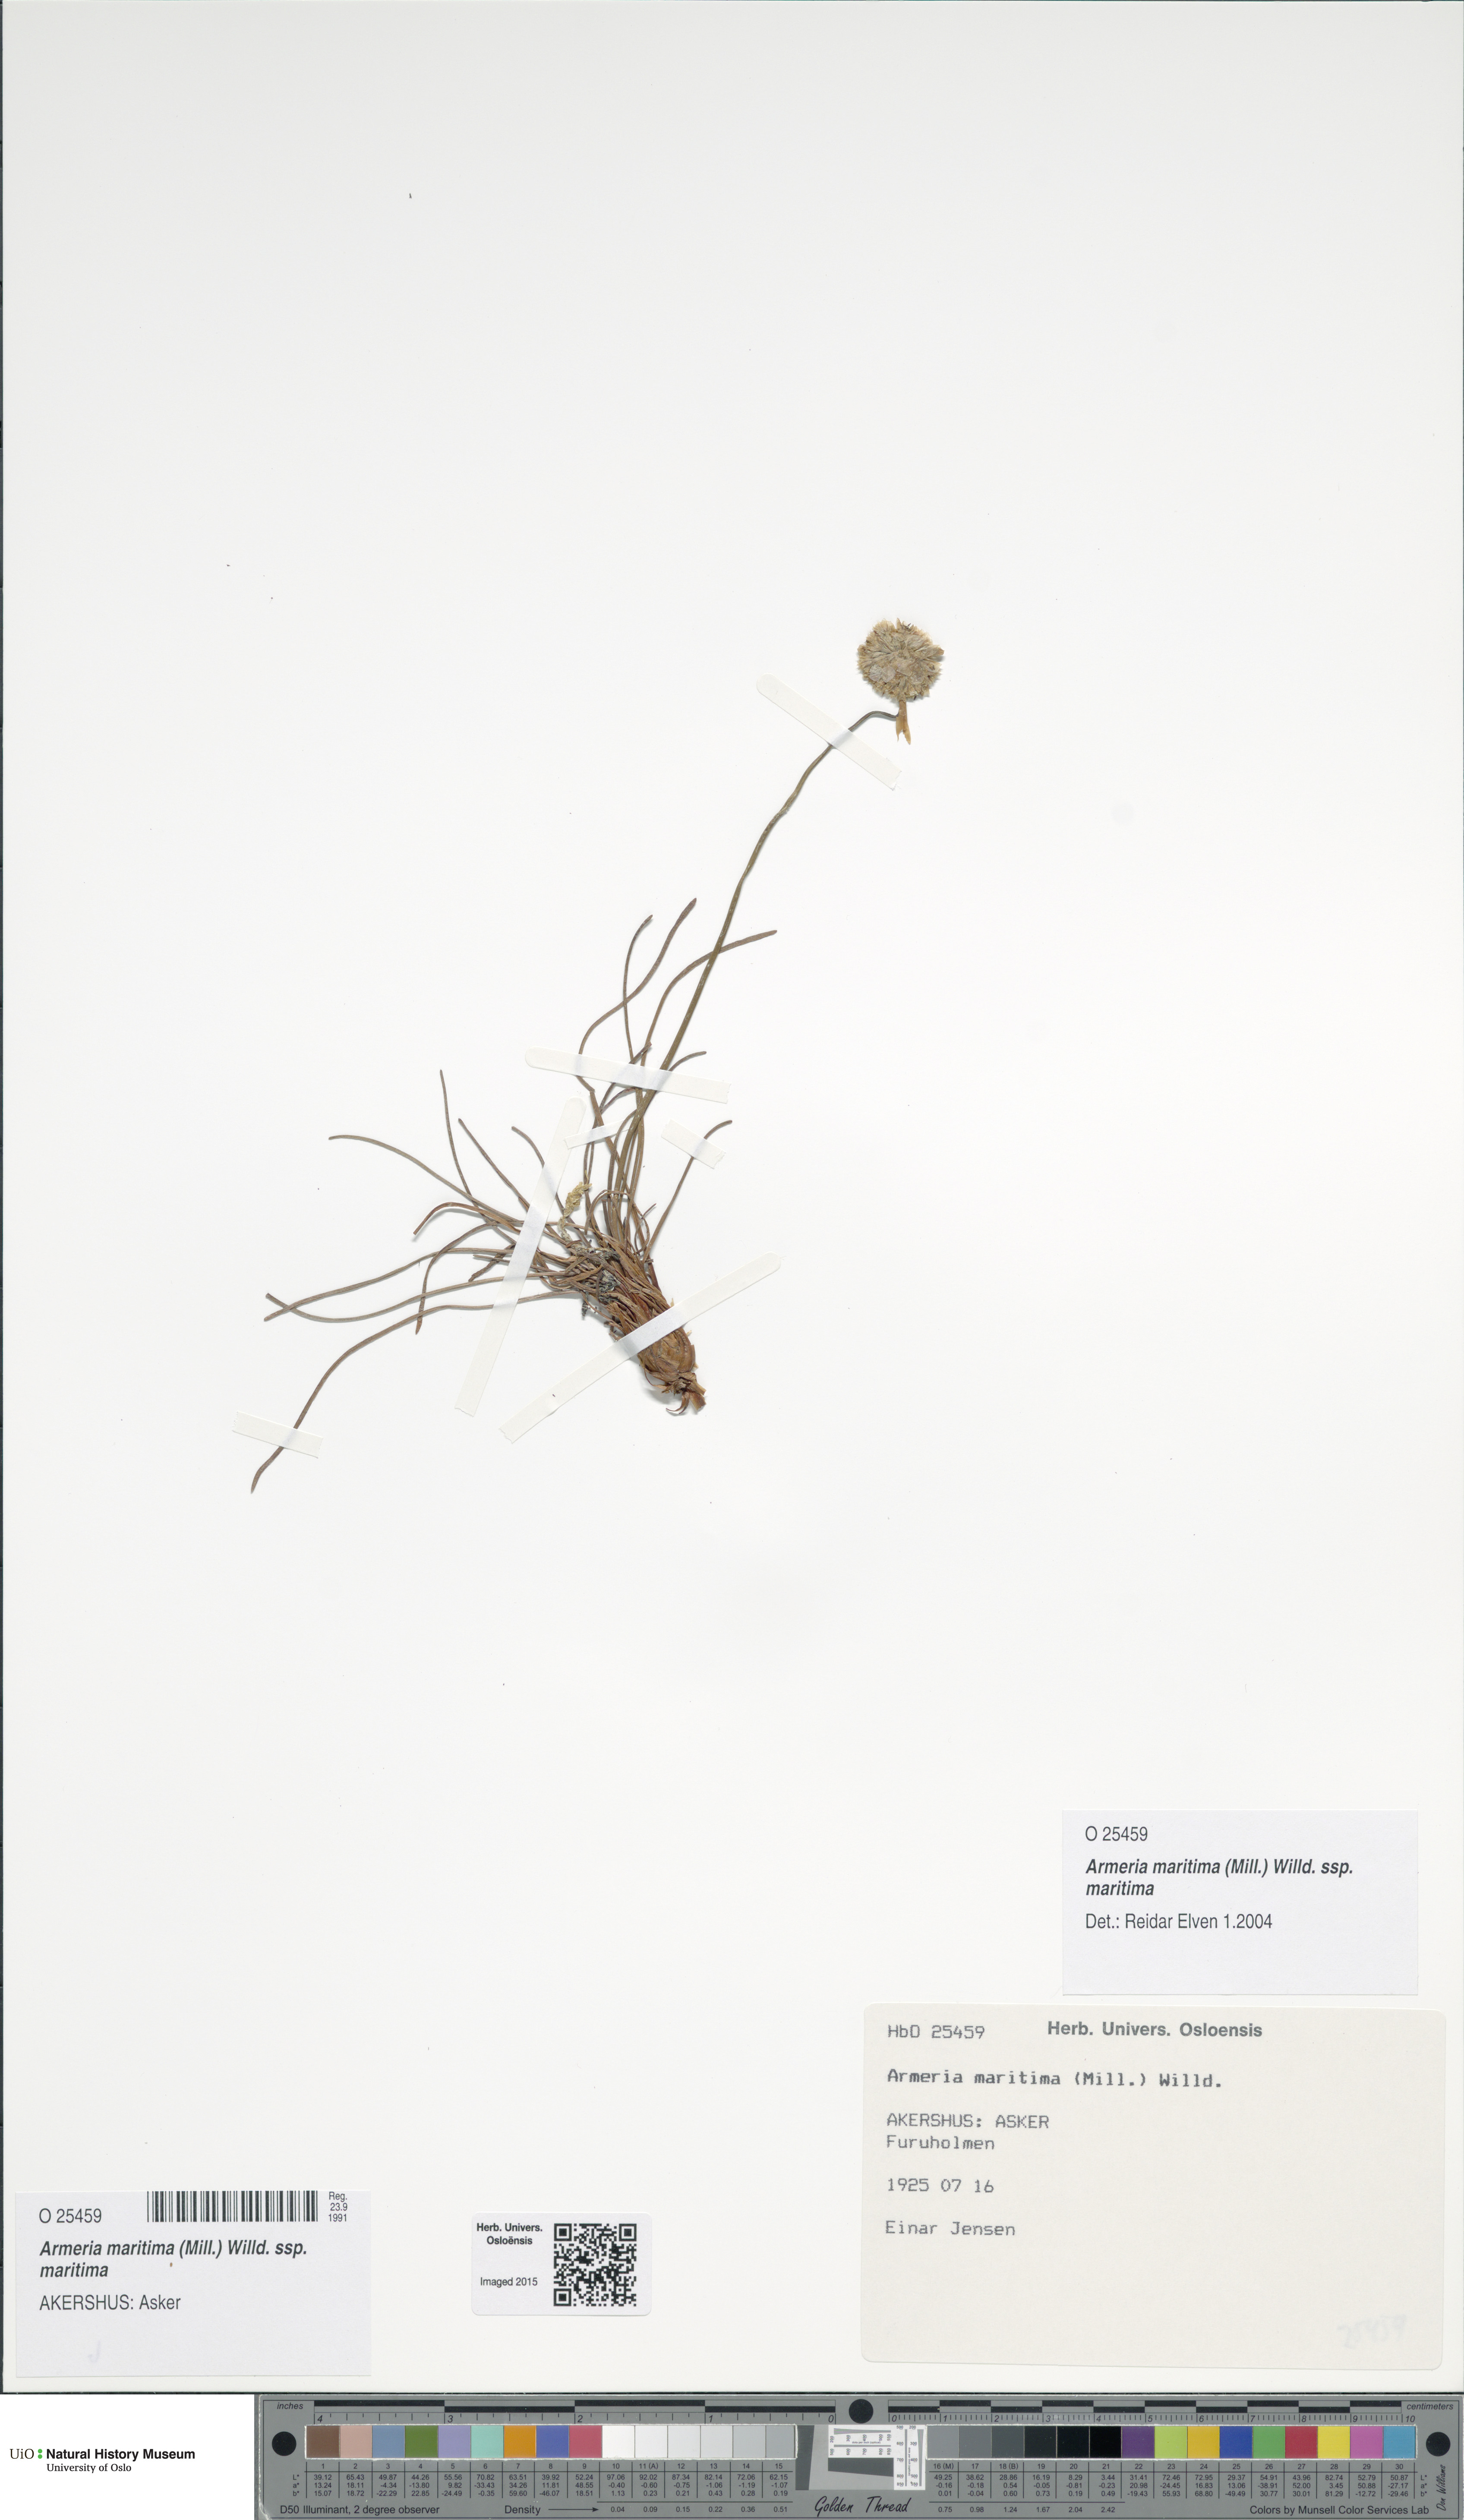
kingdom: Plantae
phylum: Tracheophyta
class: Magnoliopsida
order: Caryophyllales
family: Plumbaginaceae
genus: Armeria
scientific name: Armeria maritima
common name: Thrift
